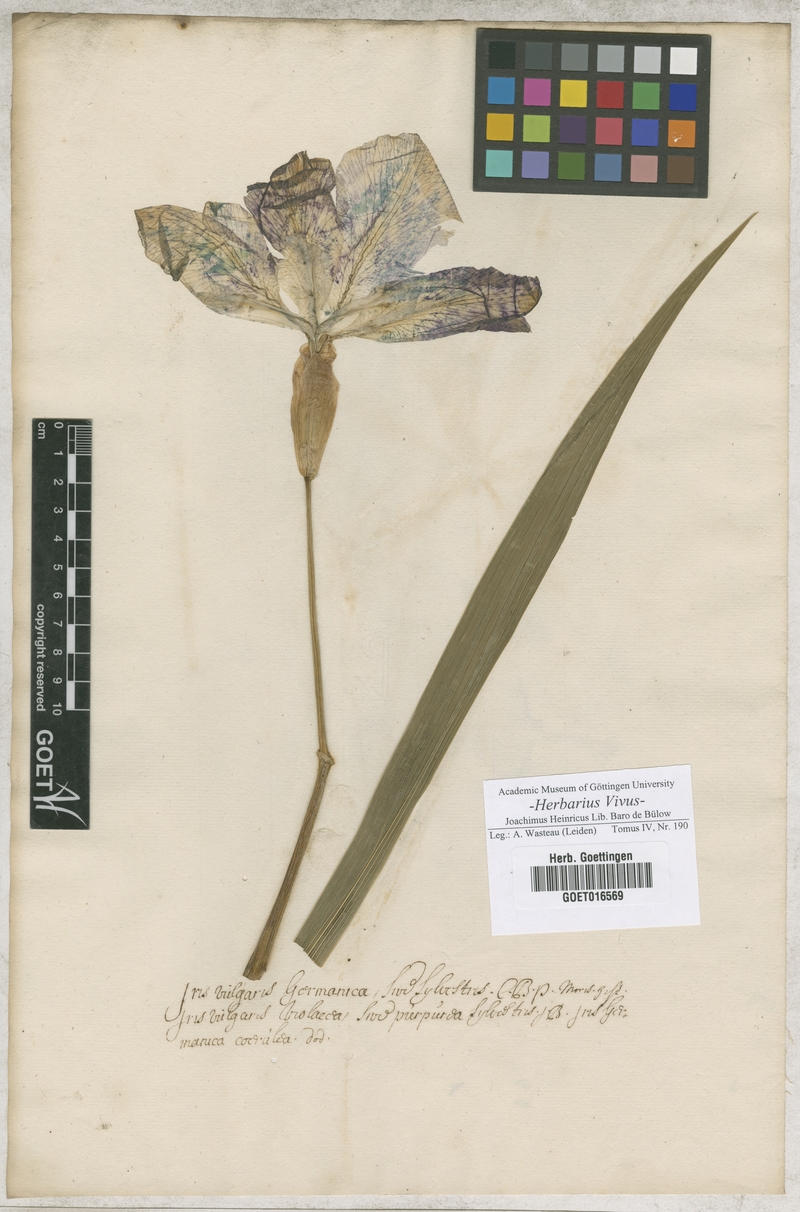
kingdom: Plantae
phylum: Tracheophyta
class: Liliopsida
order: Asparagales
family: Iridaceae
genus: Iris
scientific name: Iris germanica
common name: German iris
